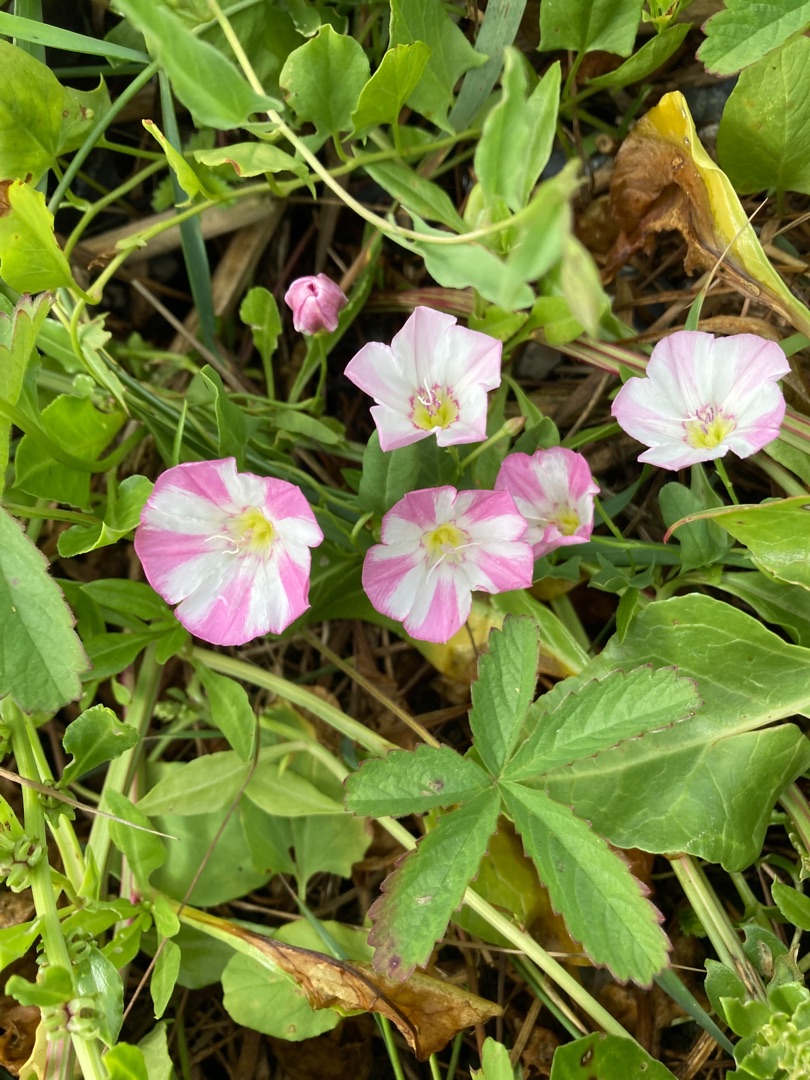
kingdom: Plantae
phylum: Tracheophyta
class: Magnoliopsida
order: Solanales
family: Convolvulaceae
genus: Convolvulus
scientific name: Convolvulus arvensis
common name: Ager-snerle
